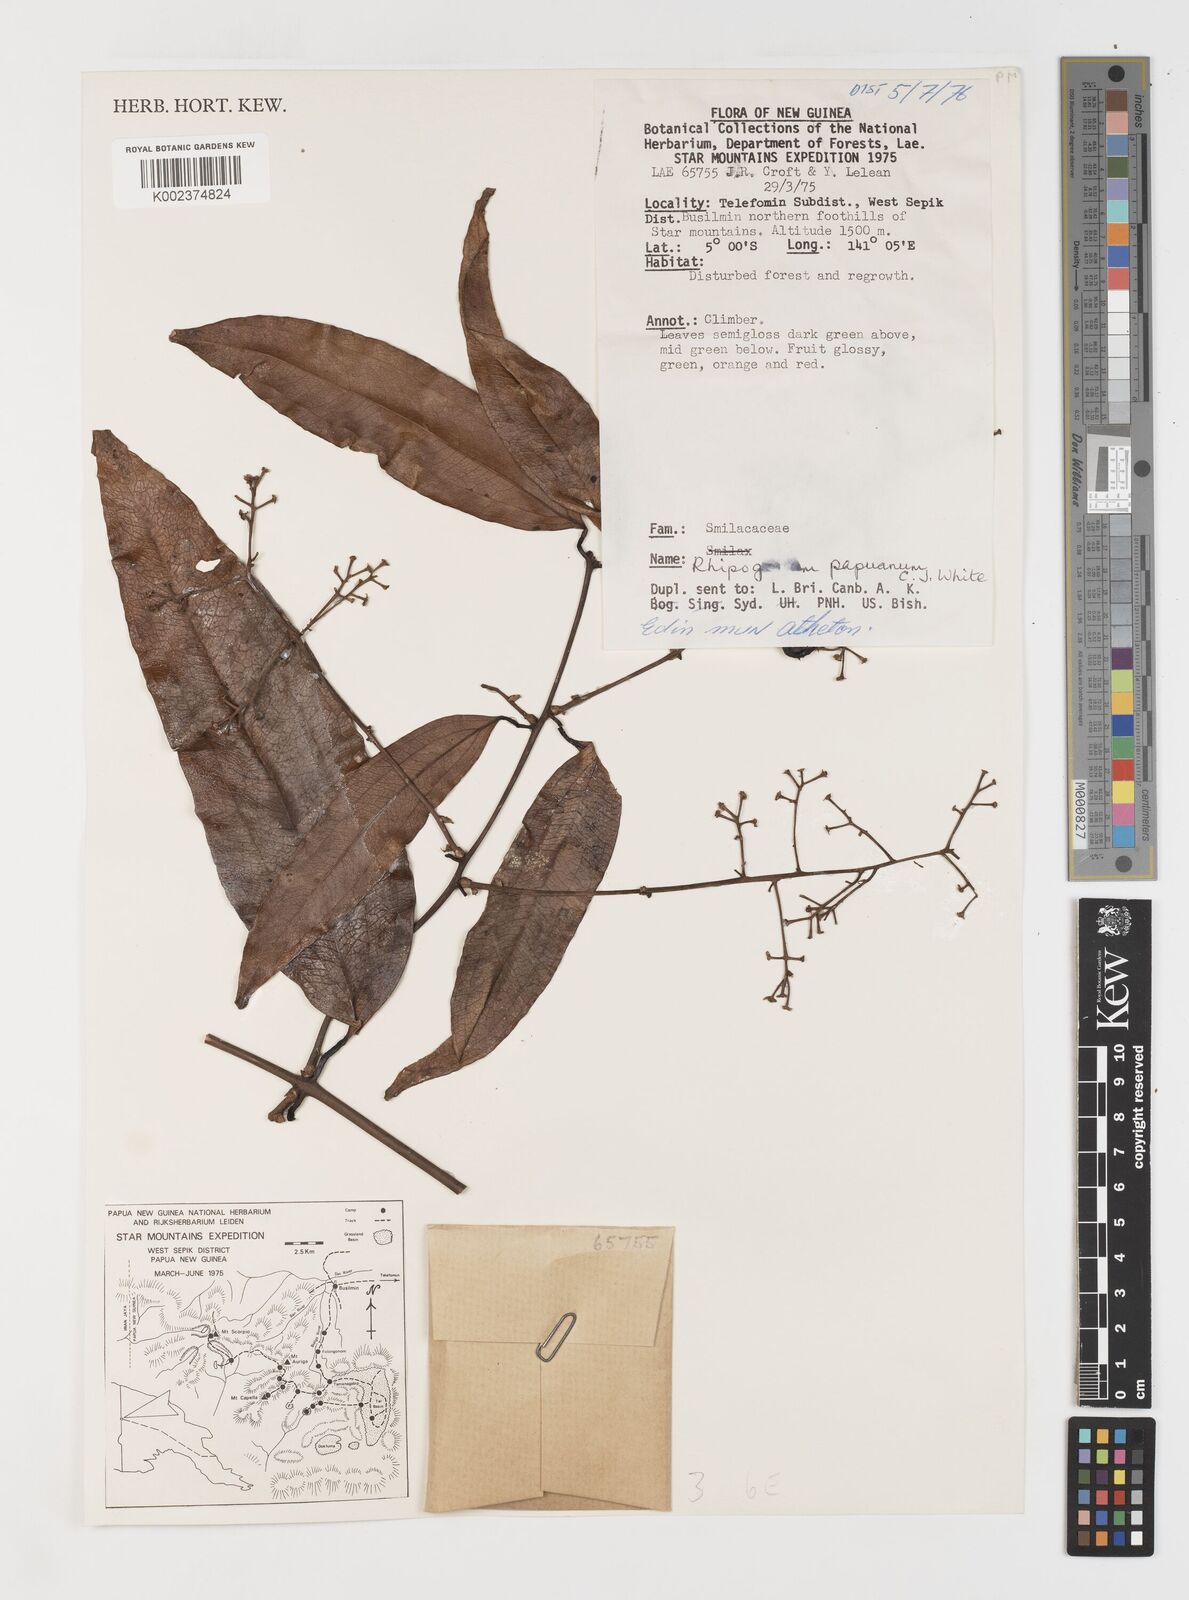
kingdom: Plantae
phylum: Tracheophyta
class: Liliopsida
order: Liliales
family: Ripogonaceae
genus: Ripogonum
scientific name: Ripogonum album
